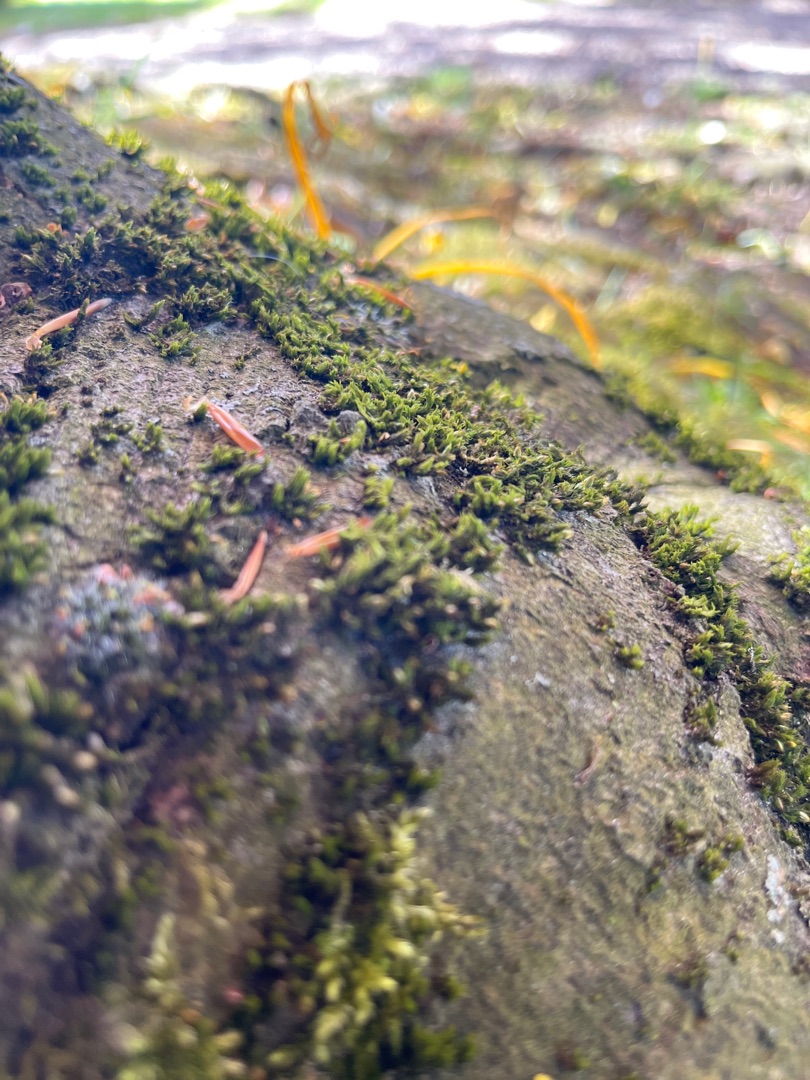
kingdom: Plantae
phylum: Bryophyta
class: Bryopsida
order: Orthotrichales
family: Orthotrichaceae
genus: Lewinskya
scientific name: Lewinskya affinis
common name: Almindelig furehætte
